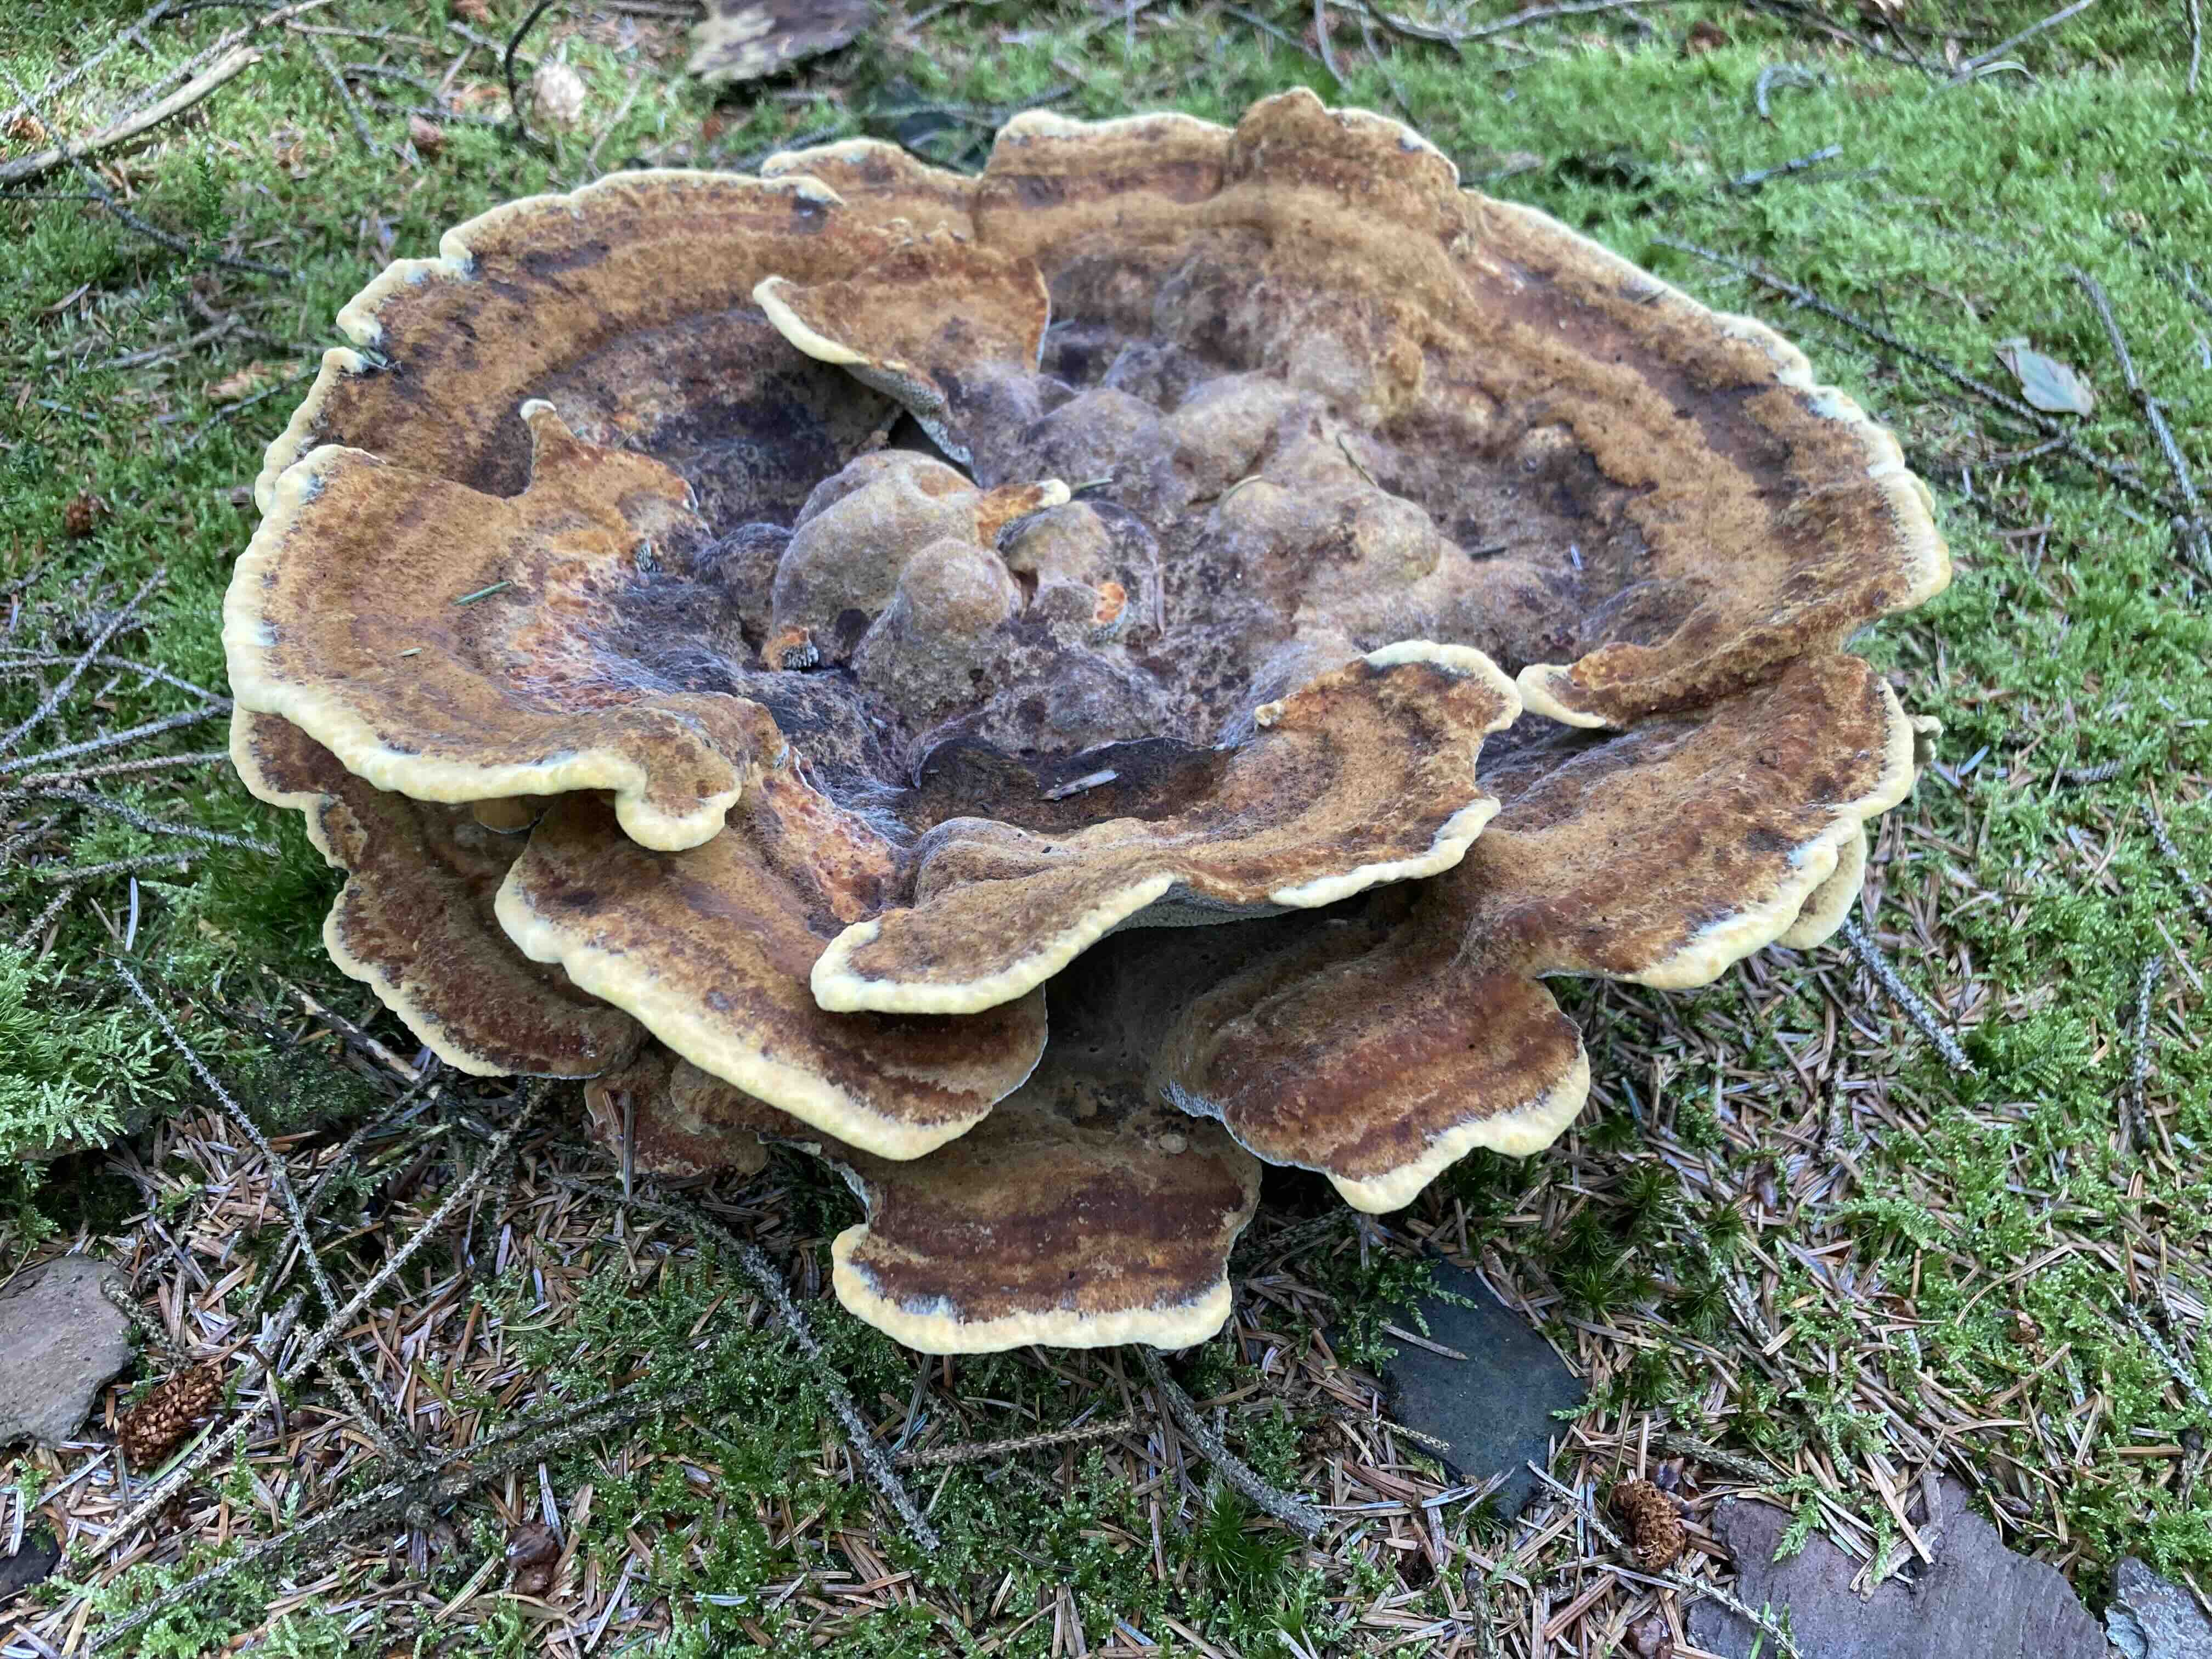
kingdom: Fungi
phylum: Basidiomycota
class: Agaricomycetes
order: Polyporales
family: Laetiporaceae
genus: Phaeolus
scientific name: Phaeolus schweinitzii
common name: brunporesvamp
